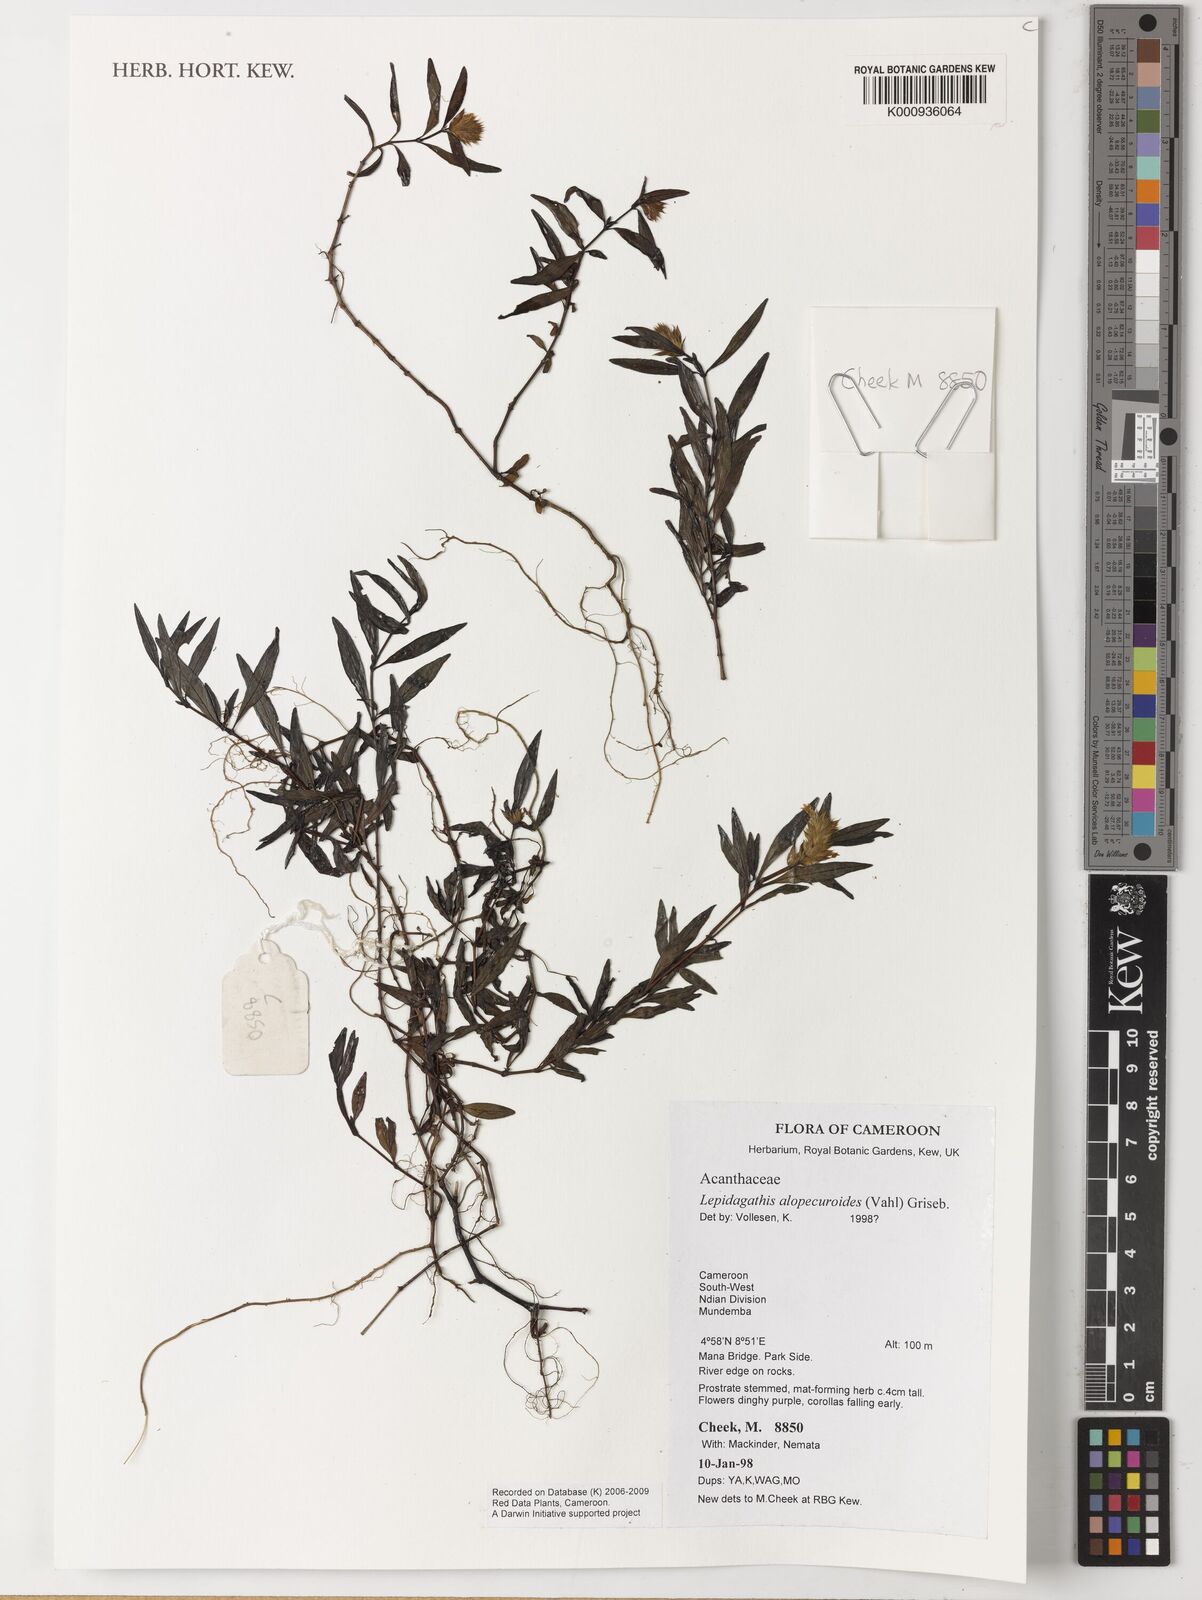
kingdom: Plantae
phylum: Tracheophyta
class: Magnoliopsida
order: Lamiales
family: Acanthaceae
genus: Lepidagathis
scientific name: Lepidagathis
